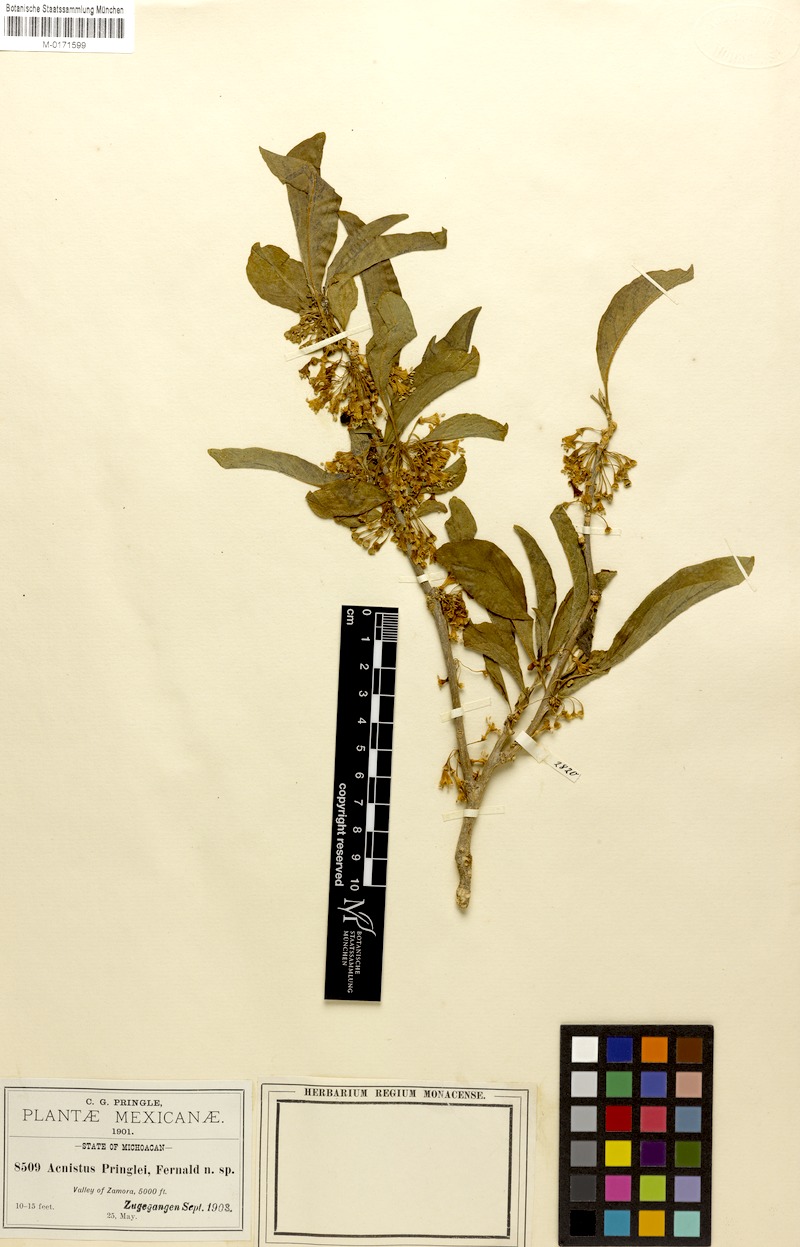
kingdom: Plantae
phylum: Tracheophyta
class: Magnoliopsida
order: Solanales
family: Solanaceae
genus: Iochroma
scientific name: Iochroma arborescens
